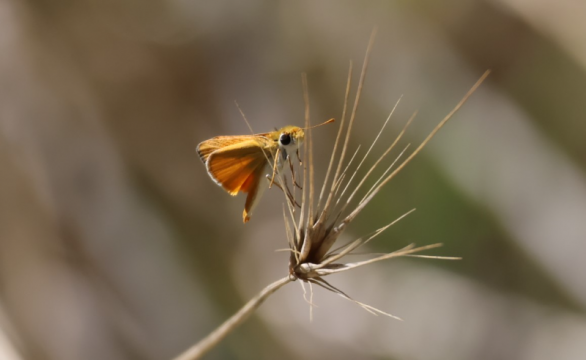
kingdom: Animalia
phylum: Arthropoda
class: Insecta
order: Lepidoptera
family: Hesperiidae
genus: Copaeodes
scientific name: Copaeodes aurantiaca
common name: Orange Skipperling
